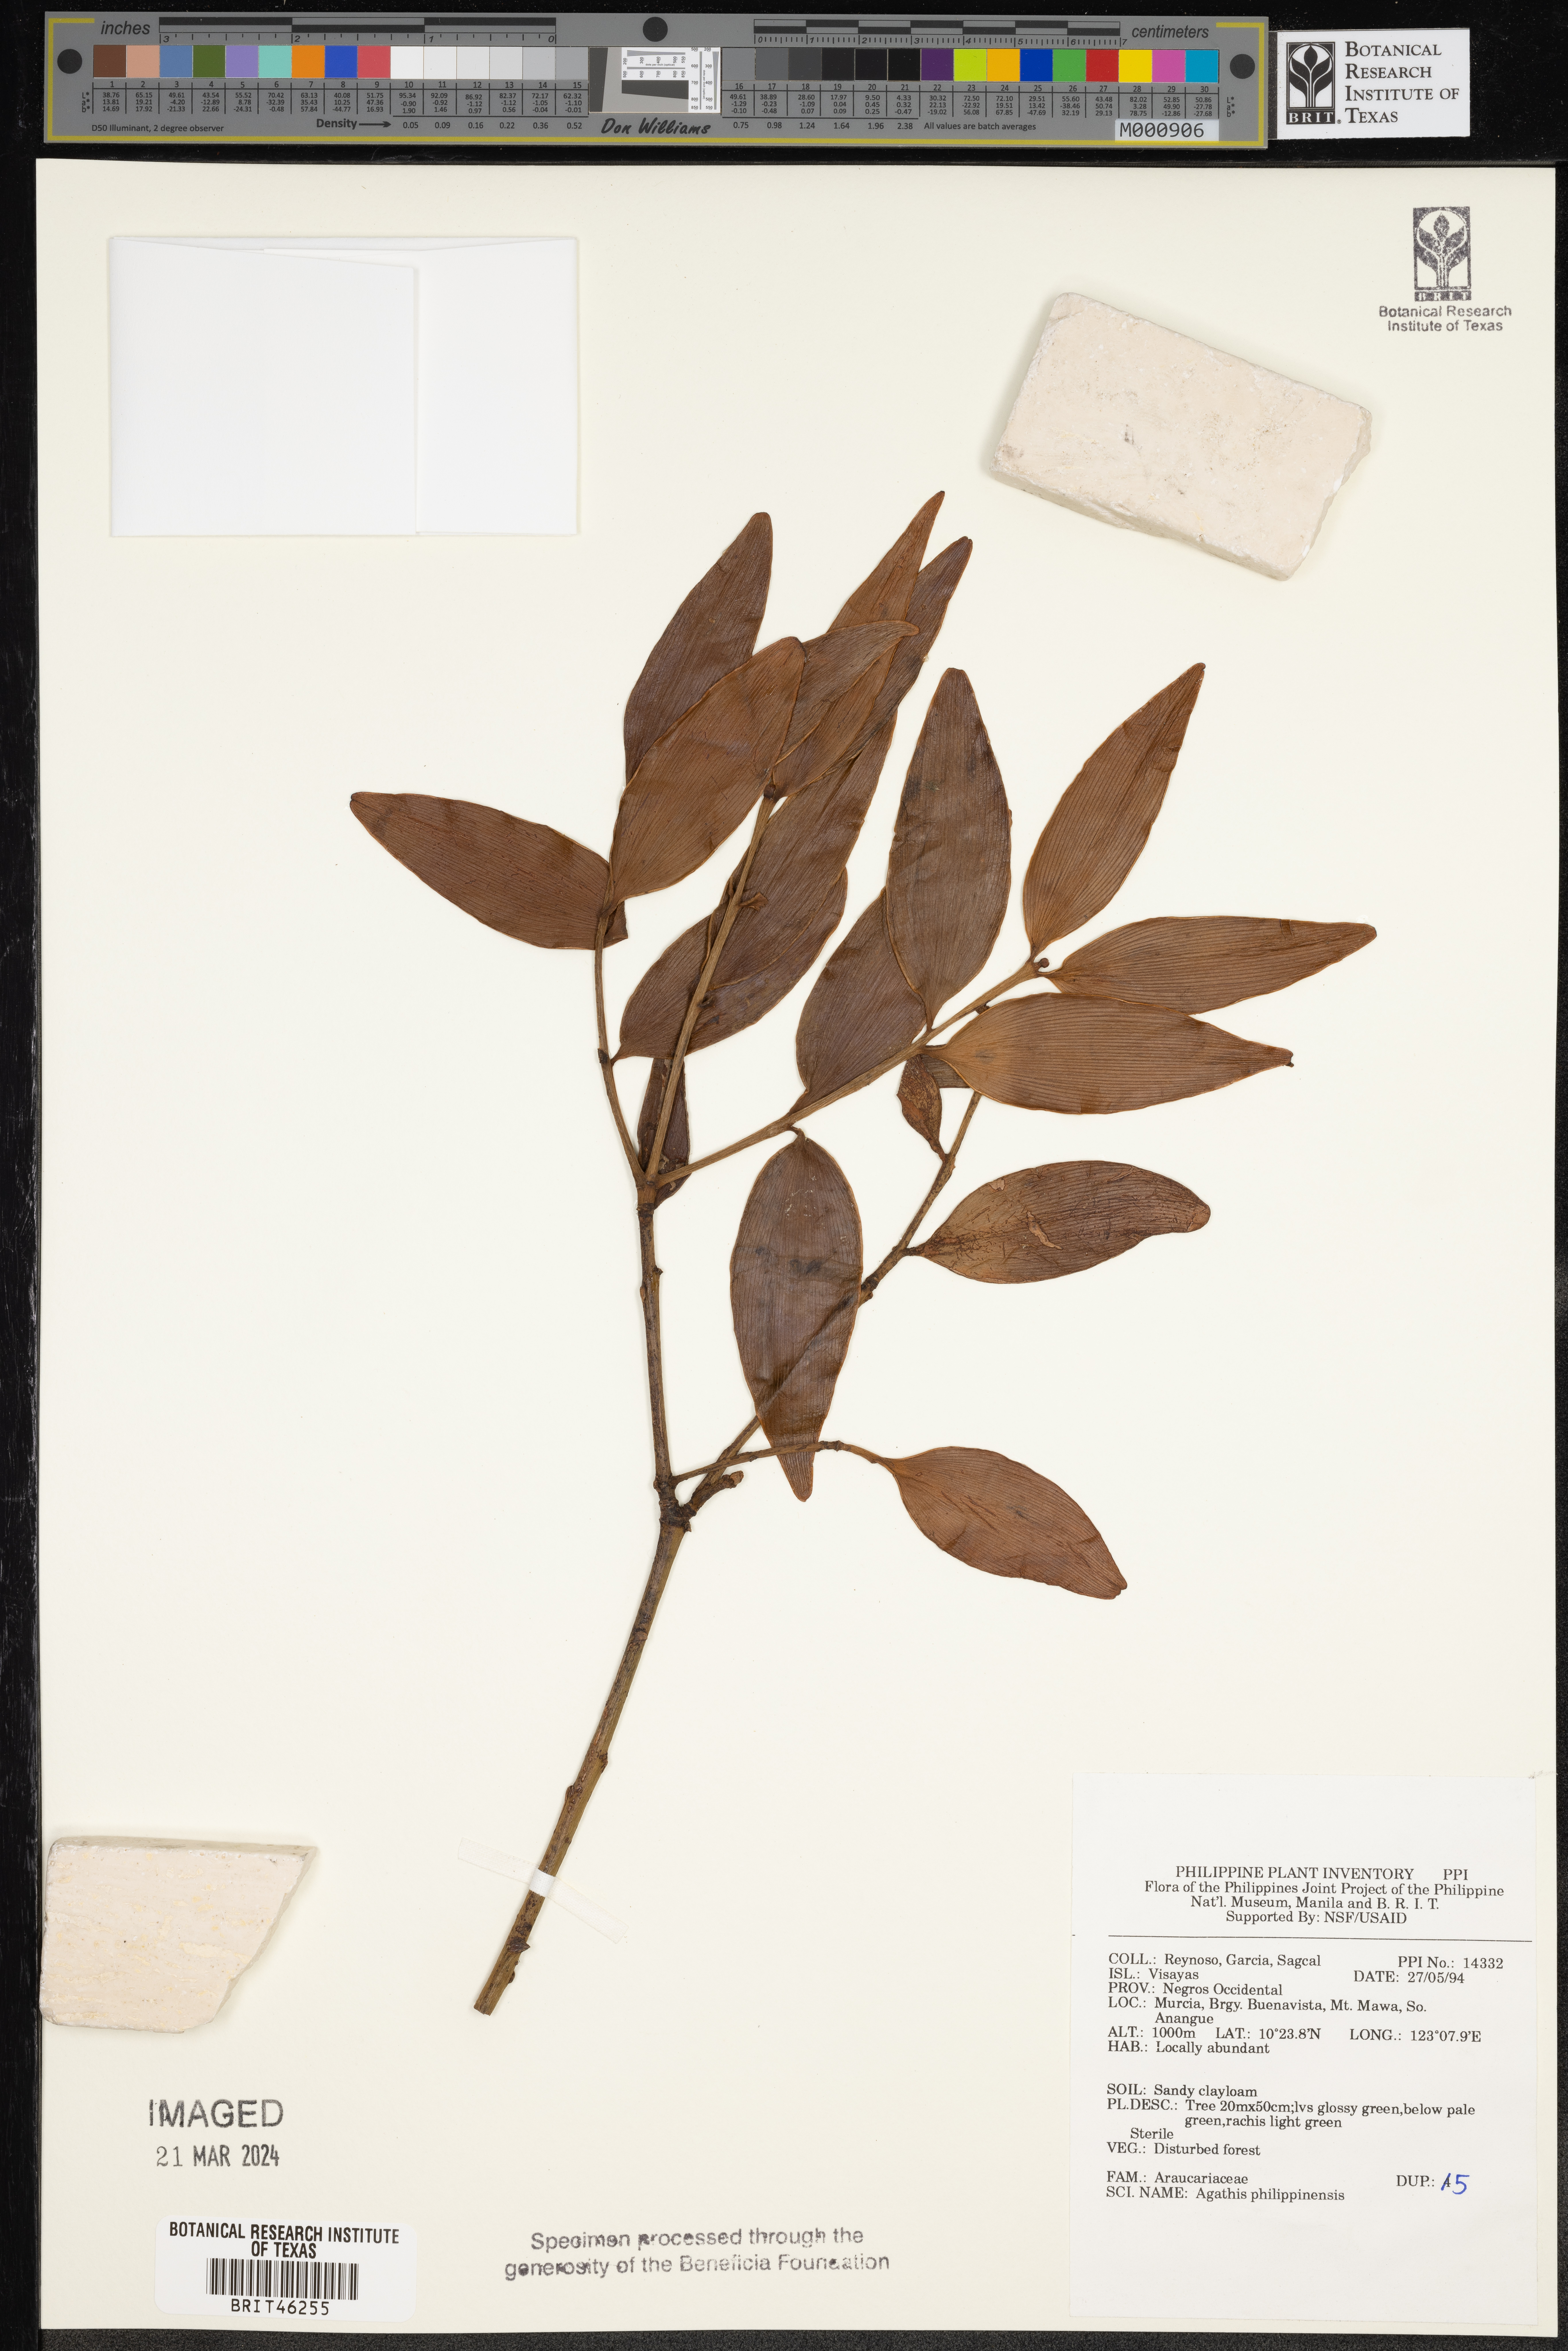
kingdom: Plantae
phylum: Tracheophyta
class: Pinopsida
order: Pinales
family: Araucariaceae
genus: Agathis
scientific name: Agathis dammara
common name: Amboina pitch tree
